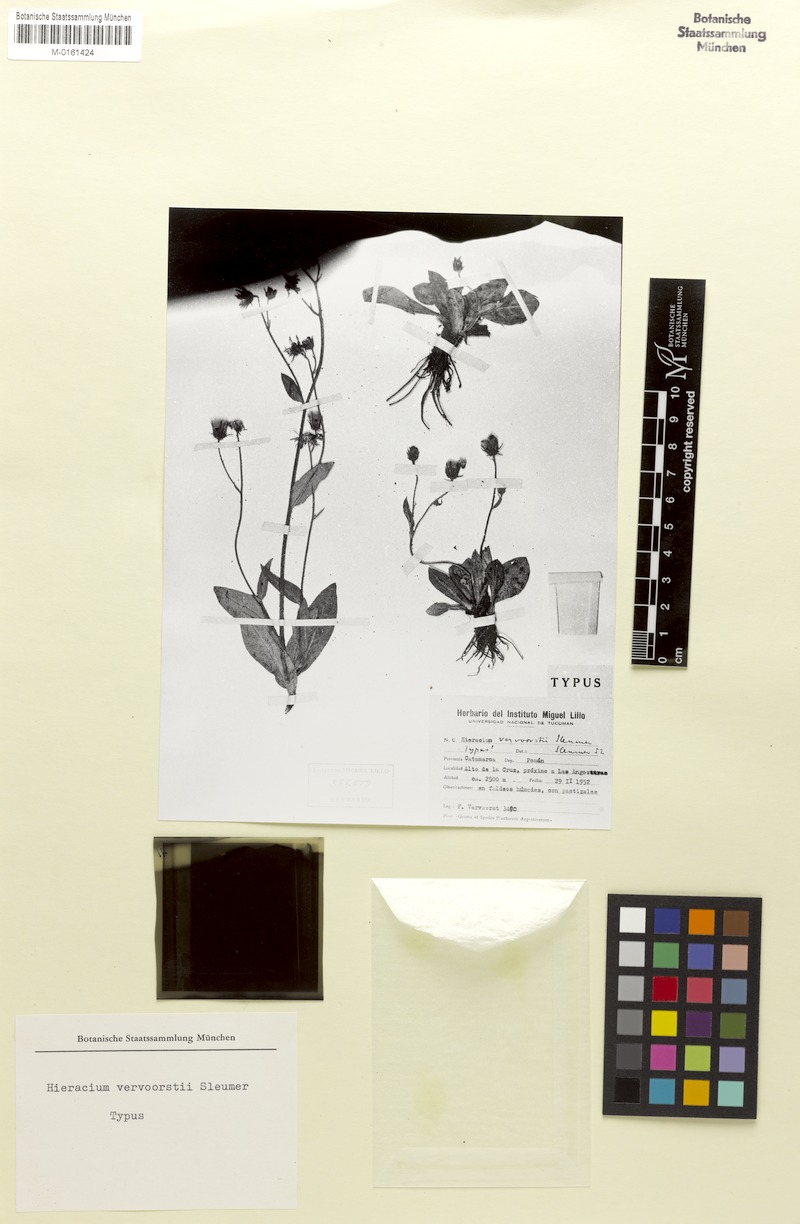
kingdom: Plantae
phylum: Tracheophyta
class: Magnoliopsida
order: Asterales
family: Asteraceae
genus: Hieracium
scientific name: Hieracium vervoorstii
